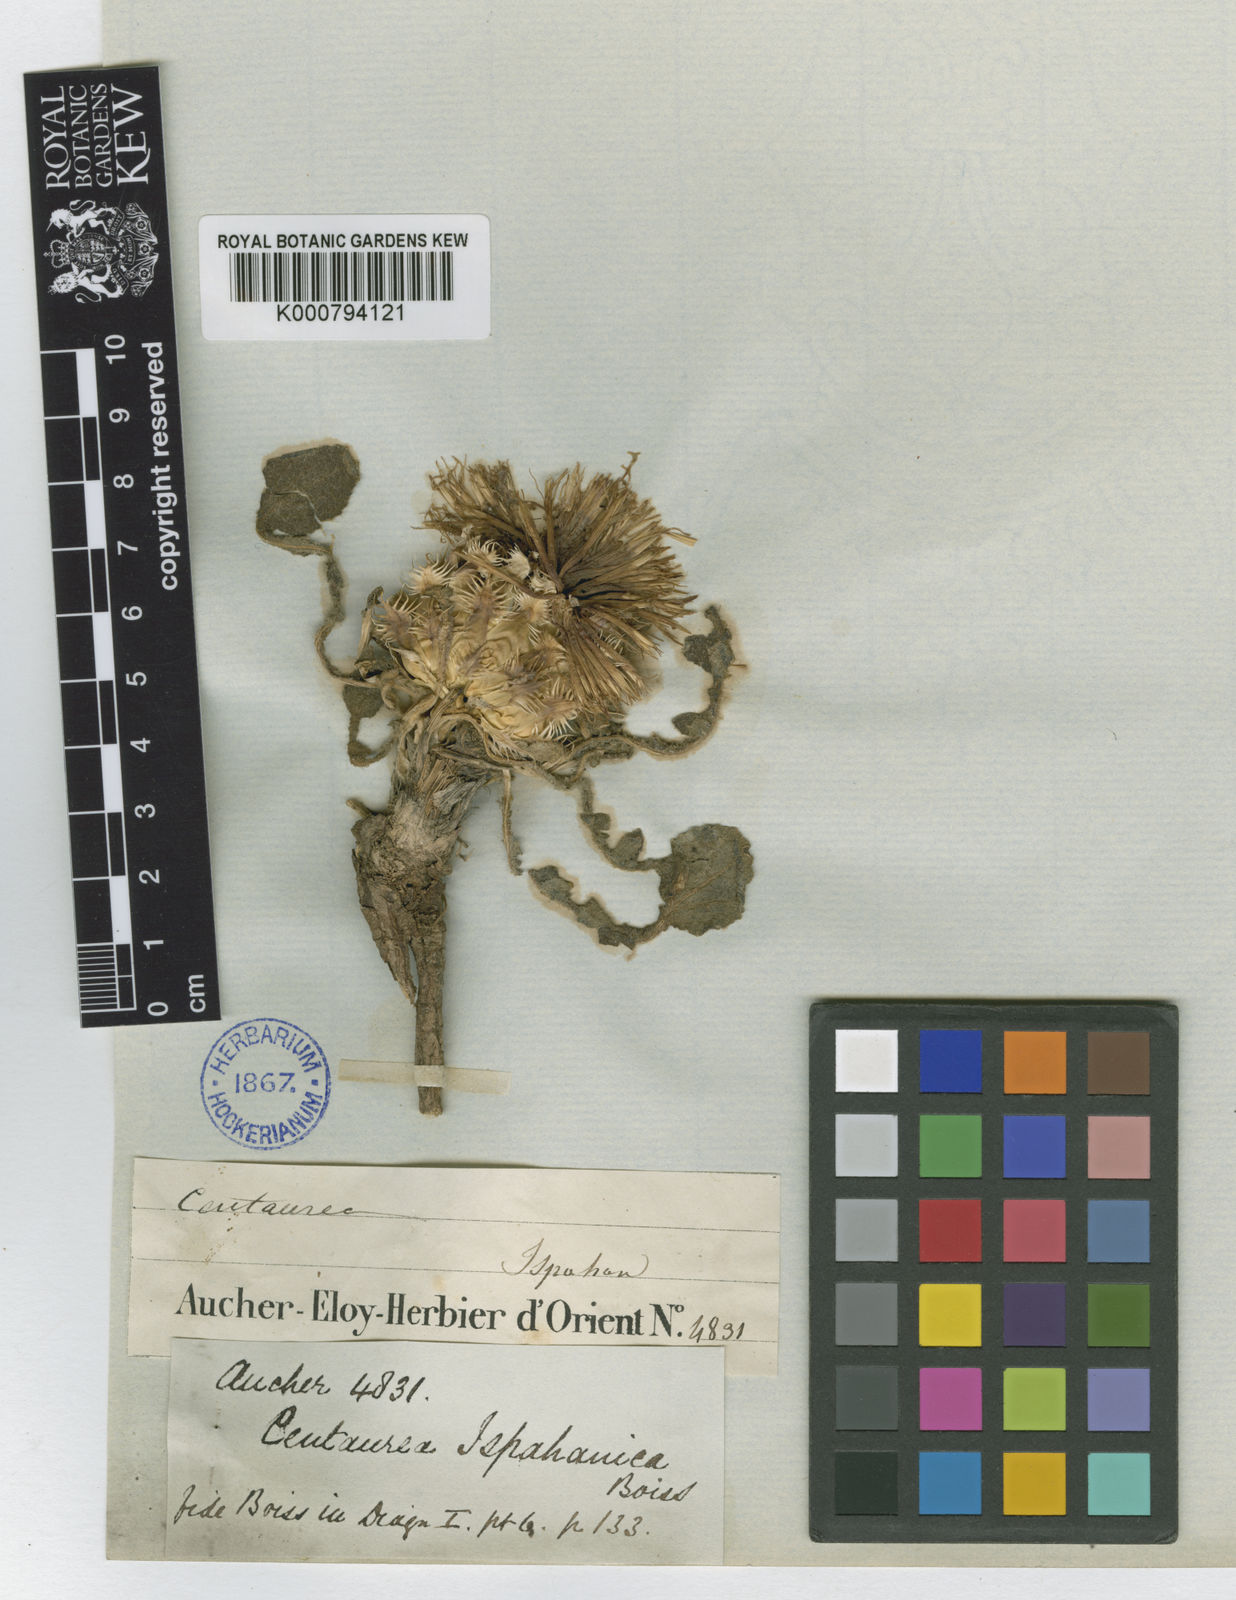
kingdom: Plantae
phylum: Tracheophyta
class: Magnoliopsida
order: Asterales
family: Asteraceae
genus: Centaurea
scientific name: Centaurea ispahanica
